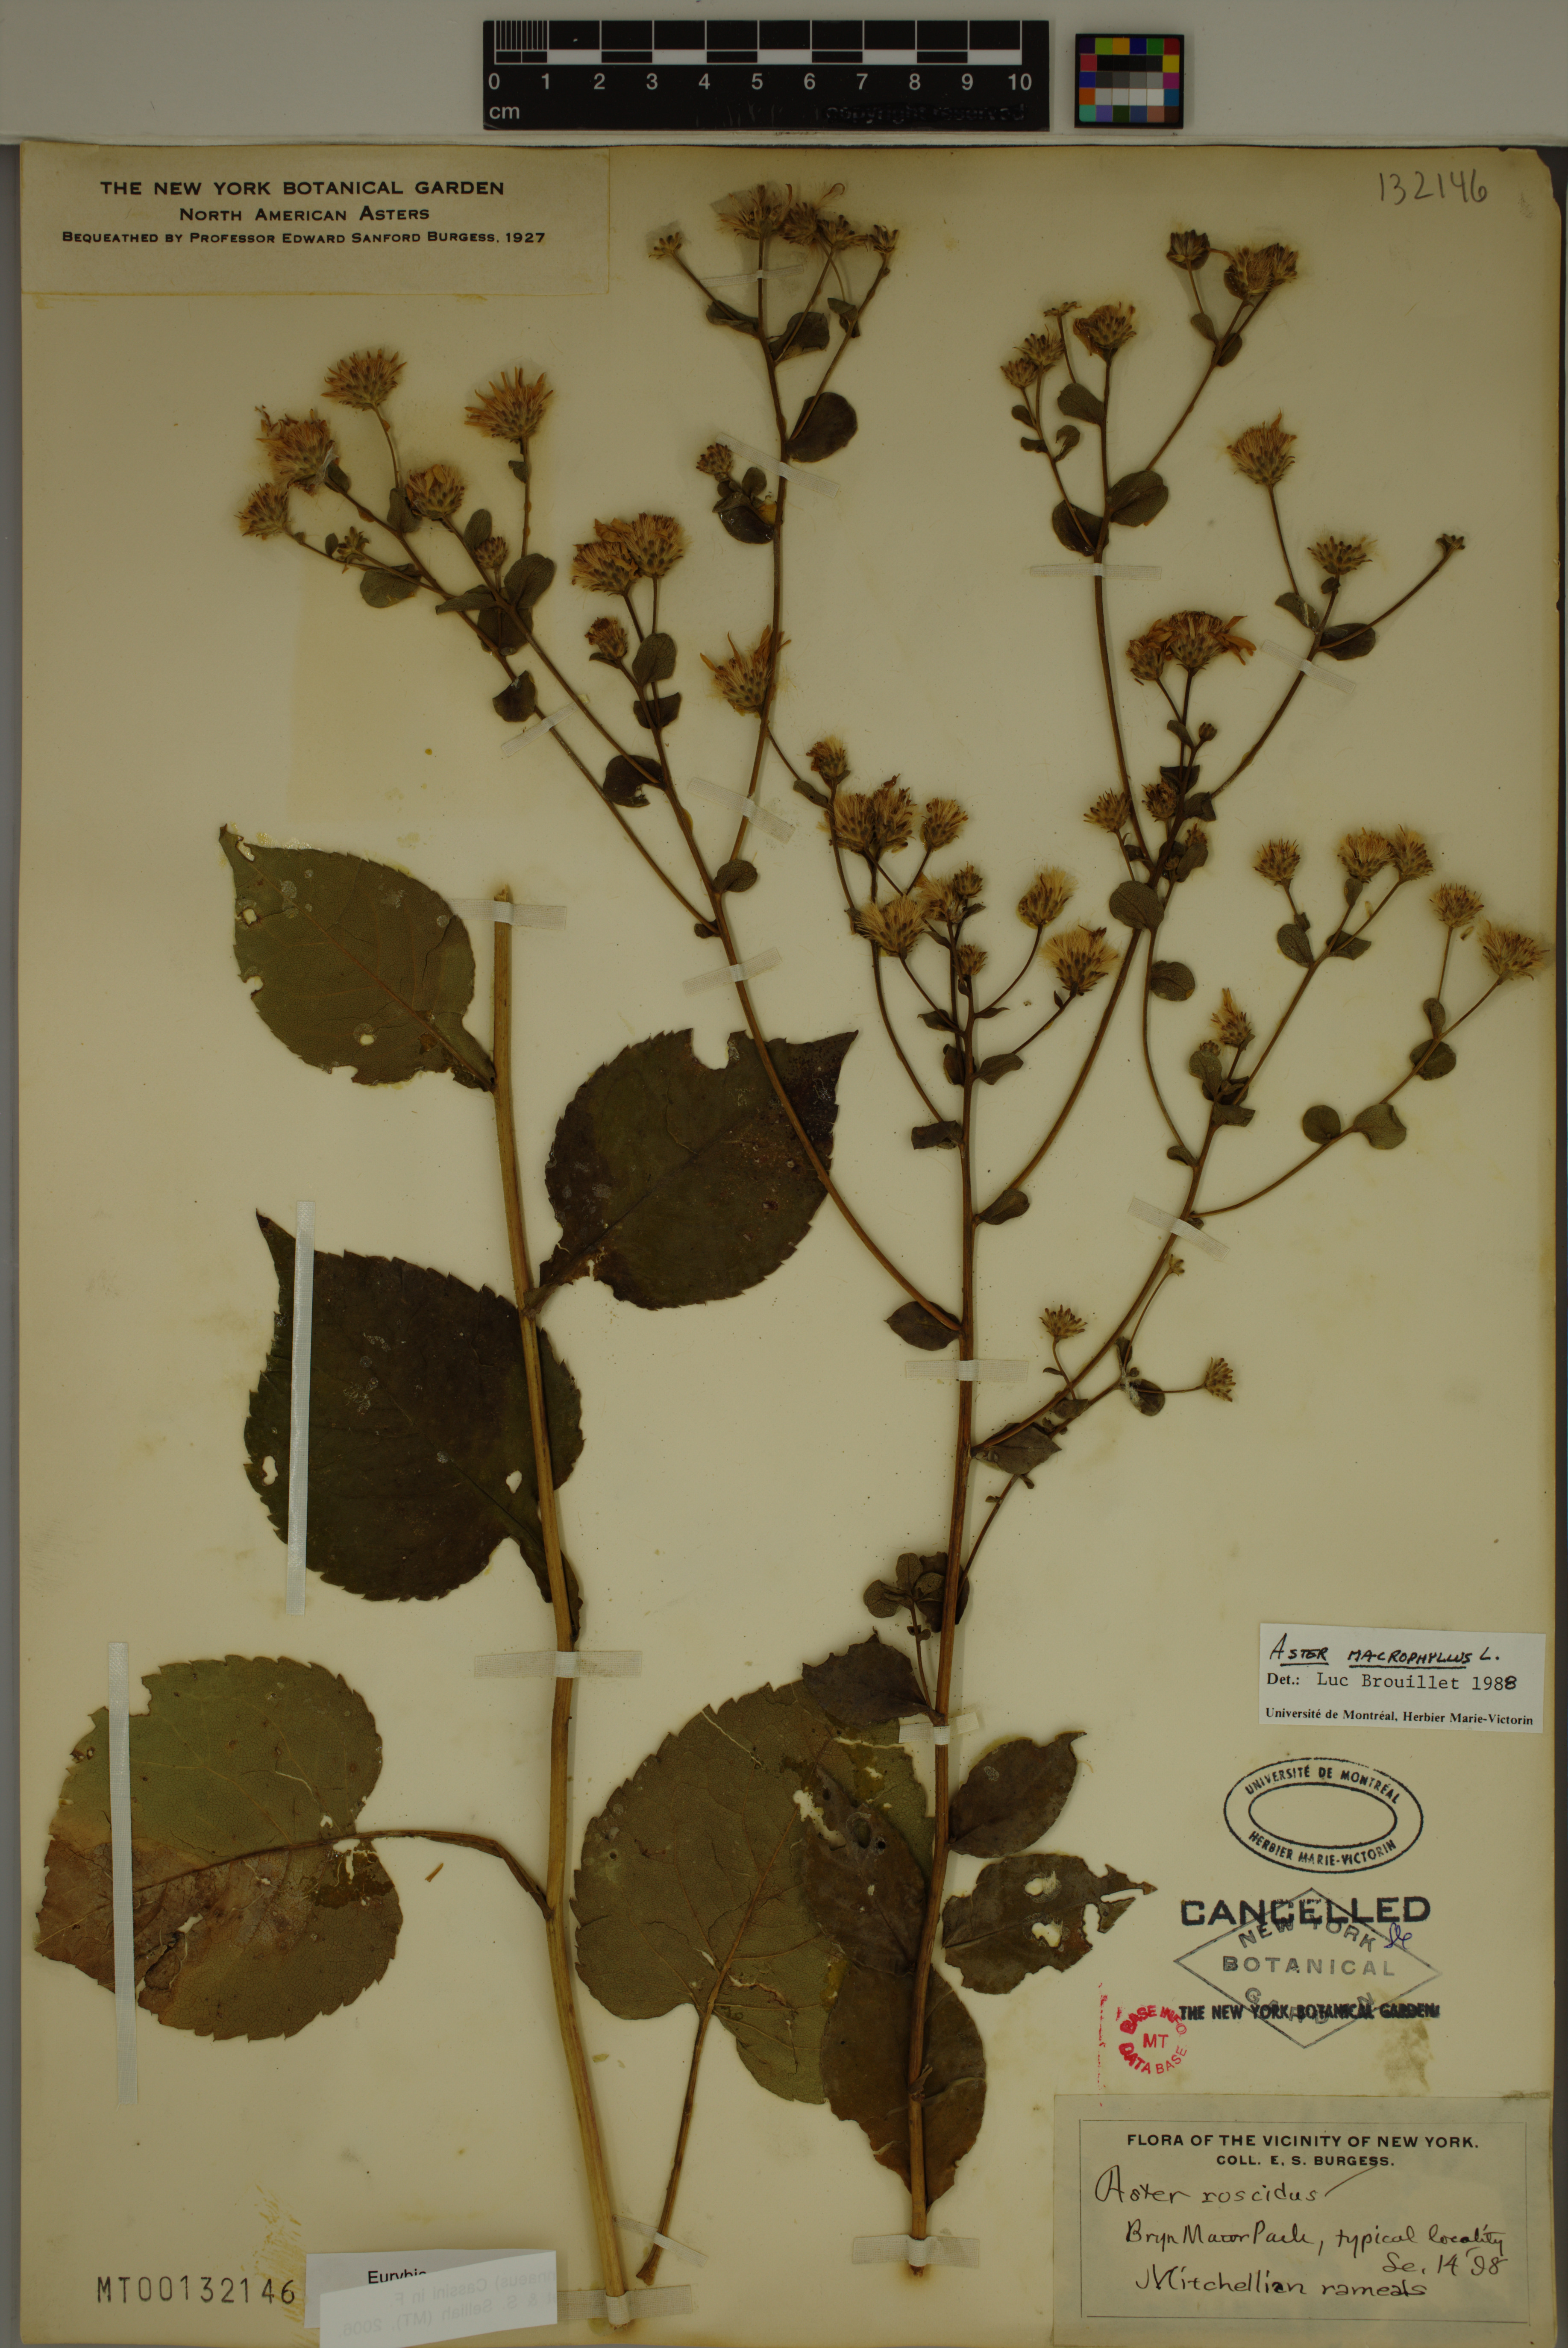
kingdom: Plantae
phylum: Tracheophyta
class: Magnoliopsida
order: Asterales
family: Asteraceae
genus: Eurybia
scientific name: Eurybia macrophylla
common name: Big-leaved aster
